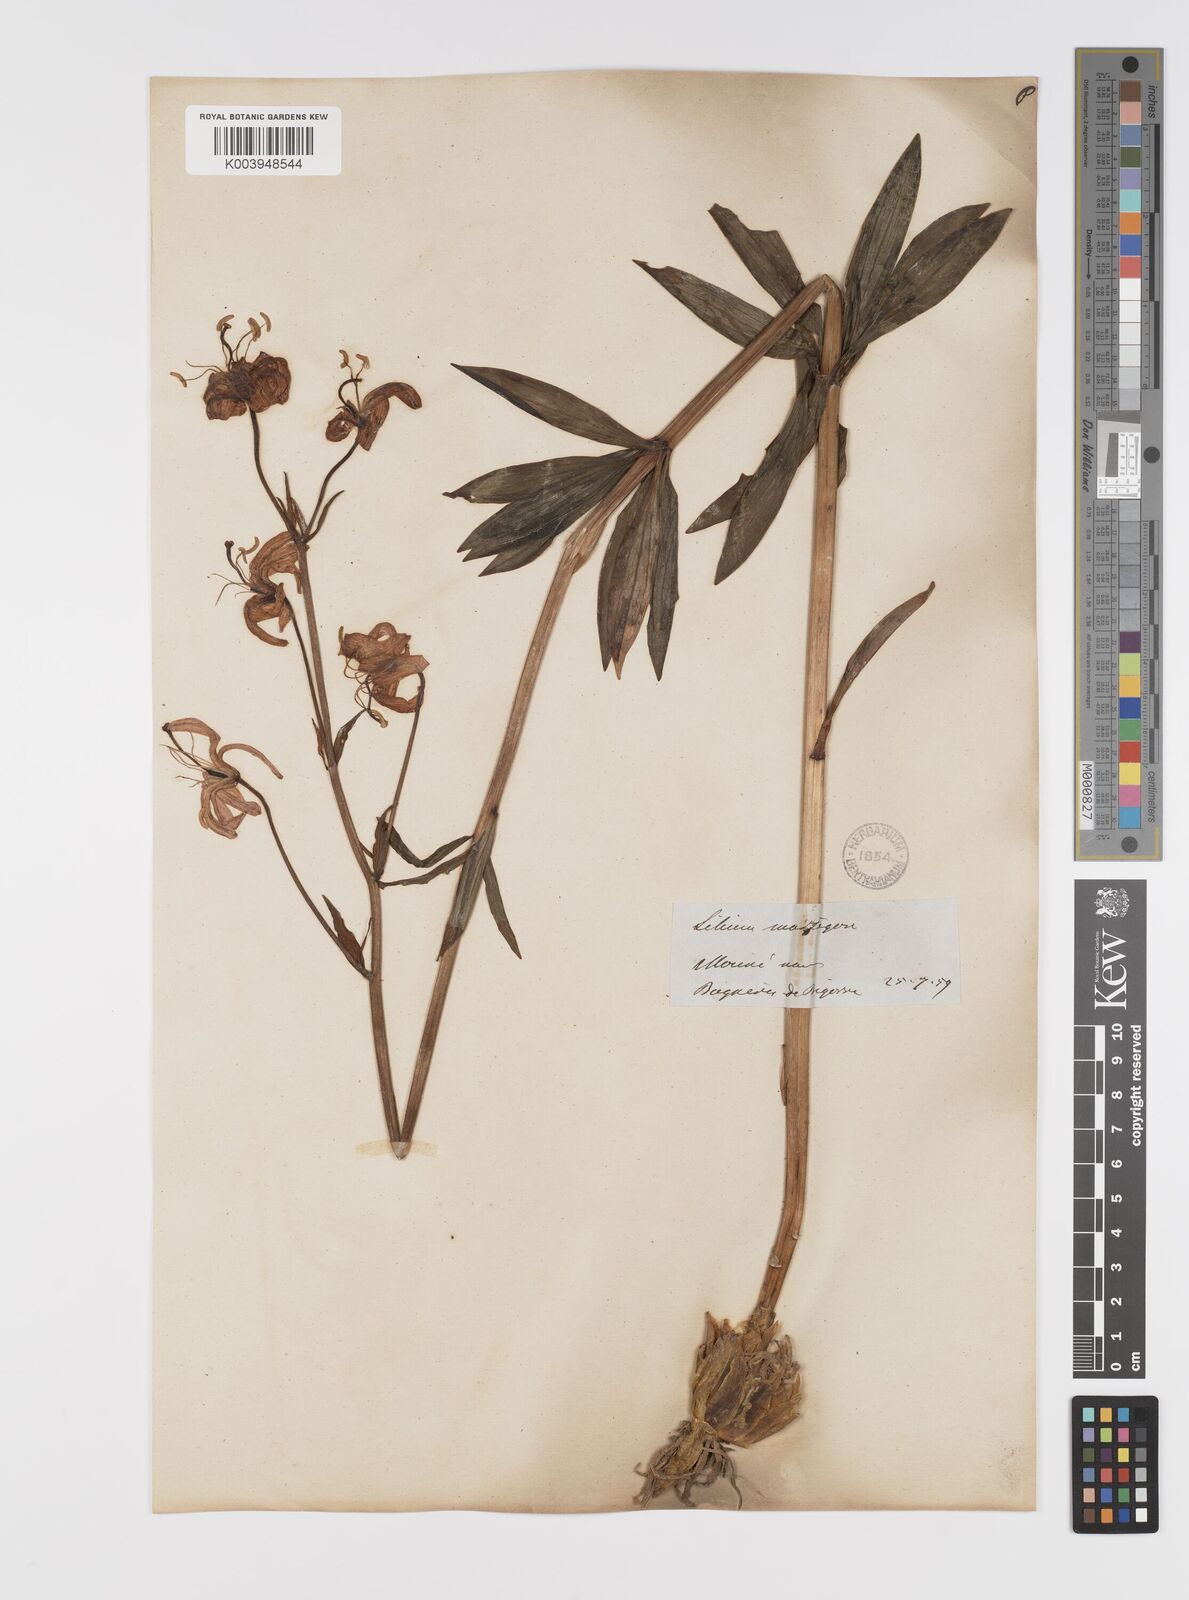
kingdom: Plantae
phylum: Tracheophyta
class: Liliopsida
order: Liliales
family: Liliaceae
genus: Lilium
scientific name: Lilium martagon
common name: Martagon lily
